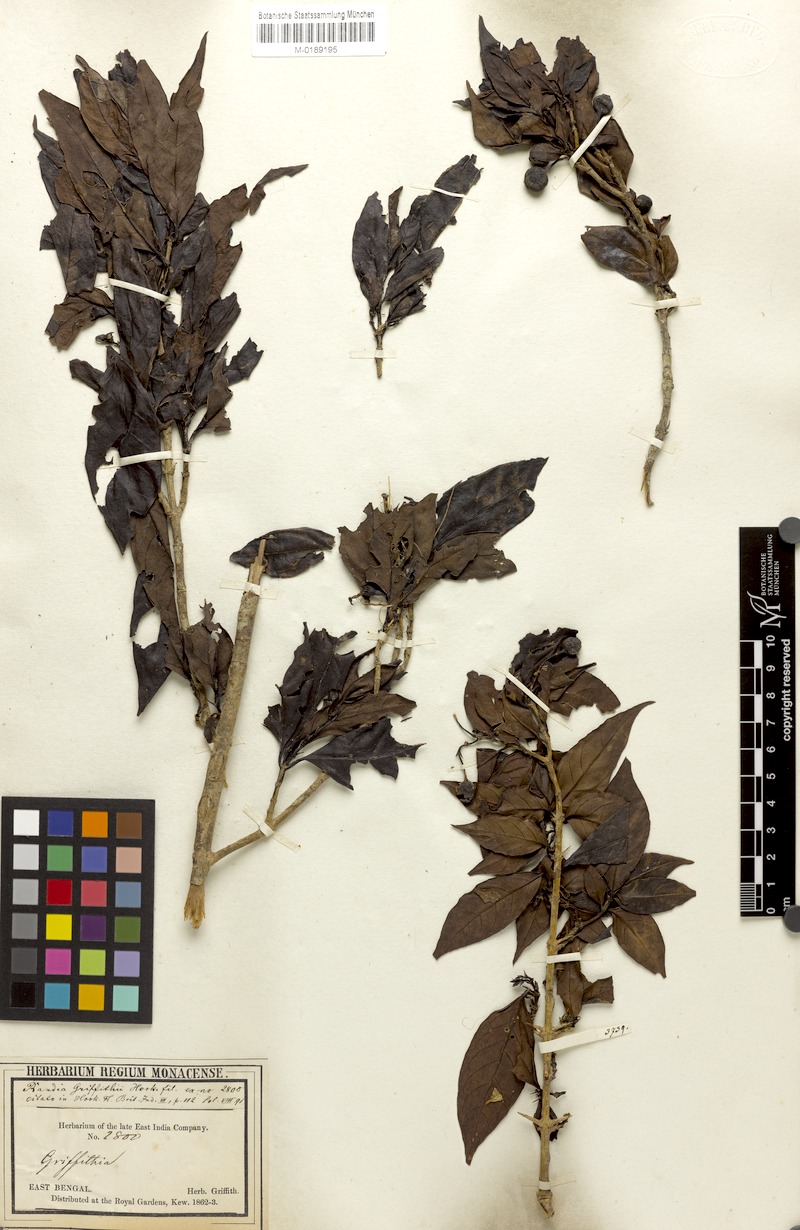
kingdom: Plantae
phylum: Tracheophyta
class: Magnoliopsida
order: Gentianales
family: Rubiaceae
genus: Benkara
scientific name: Benkara griffithii
